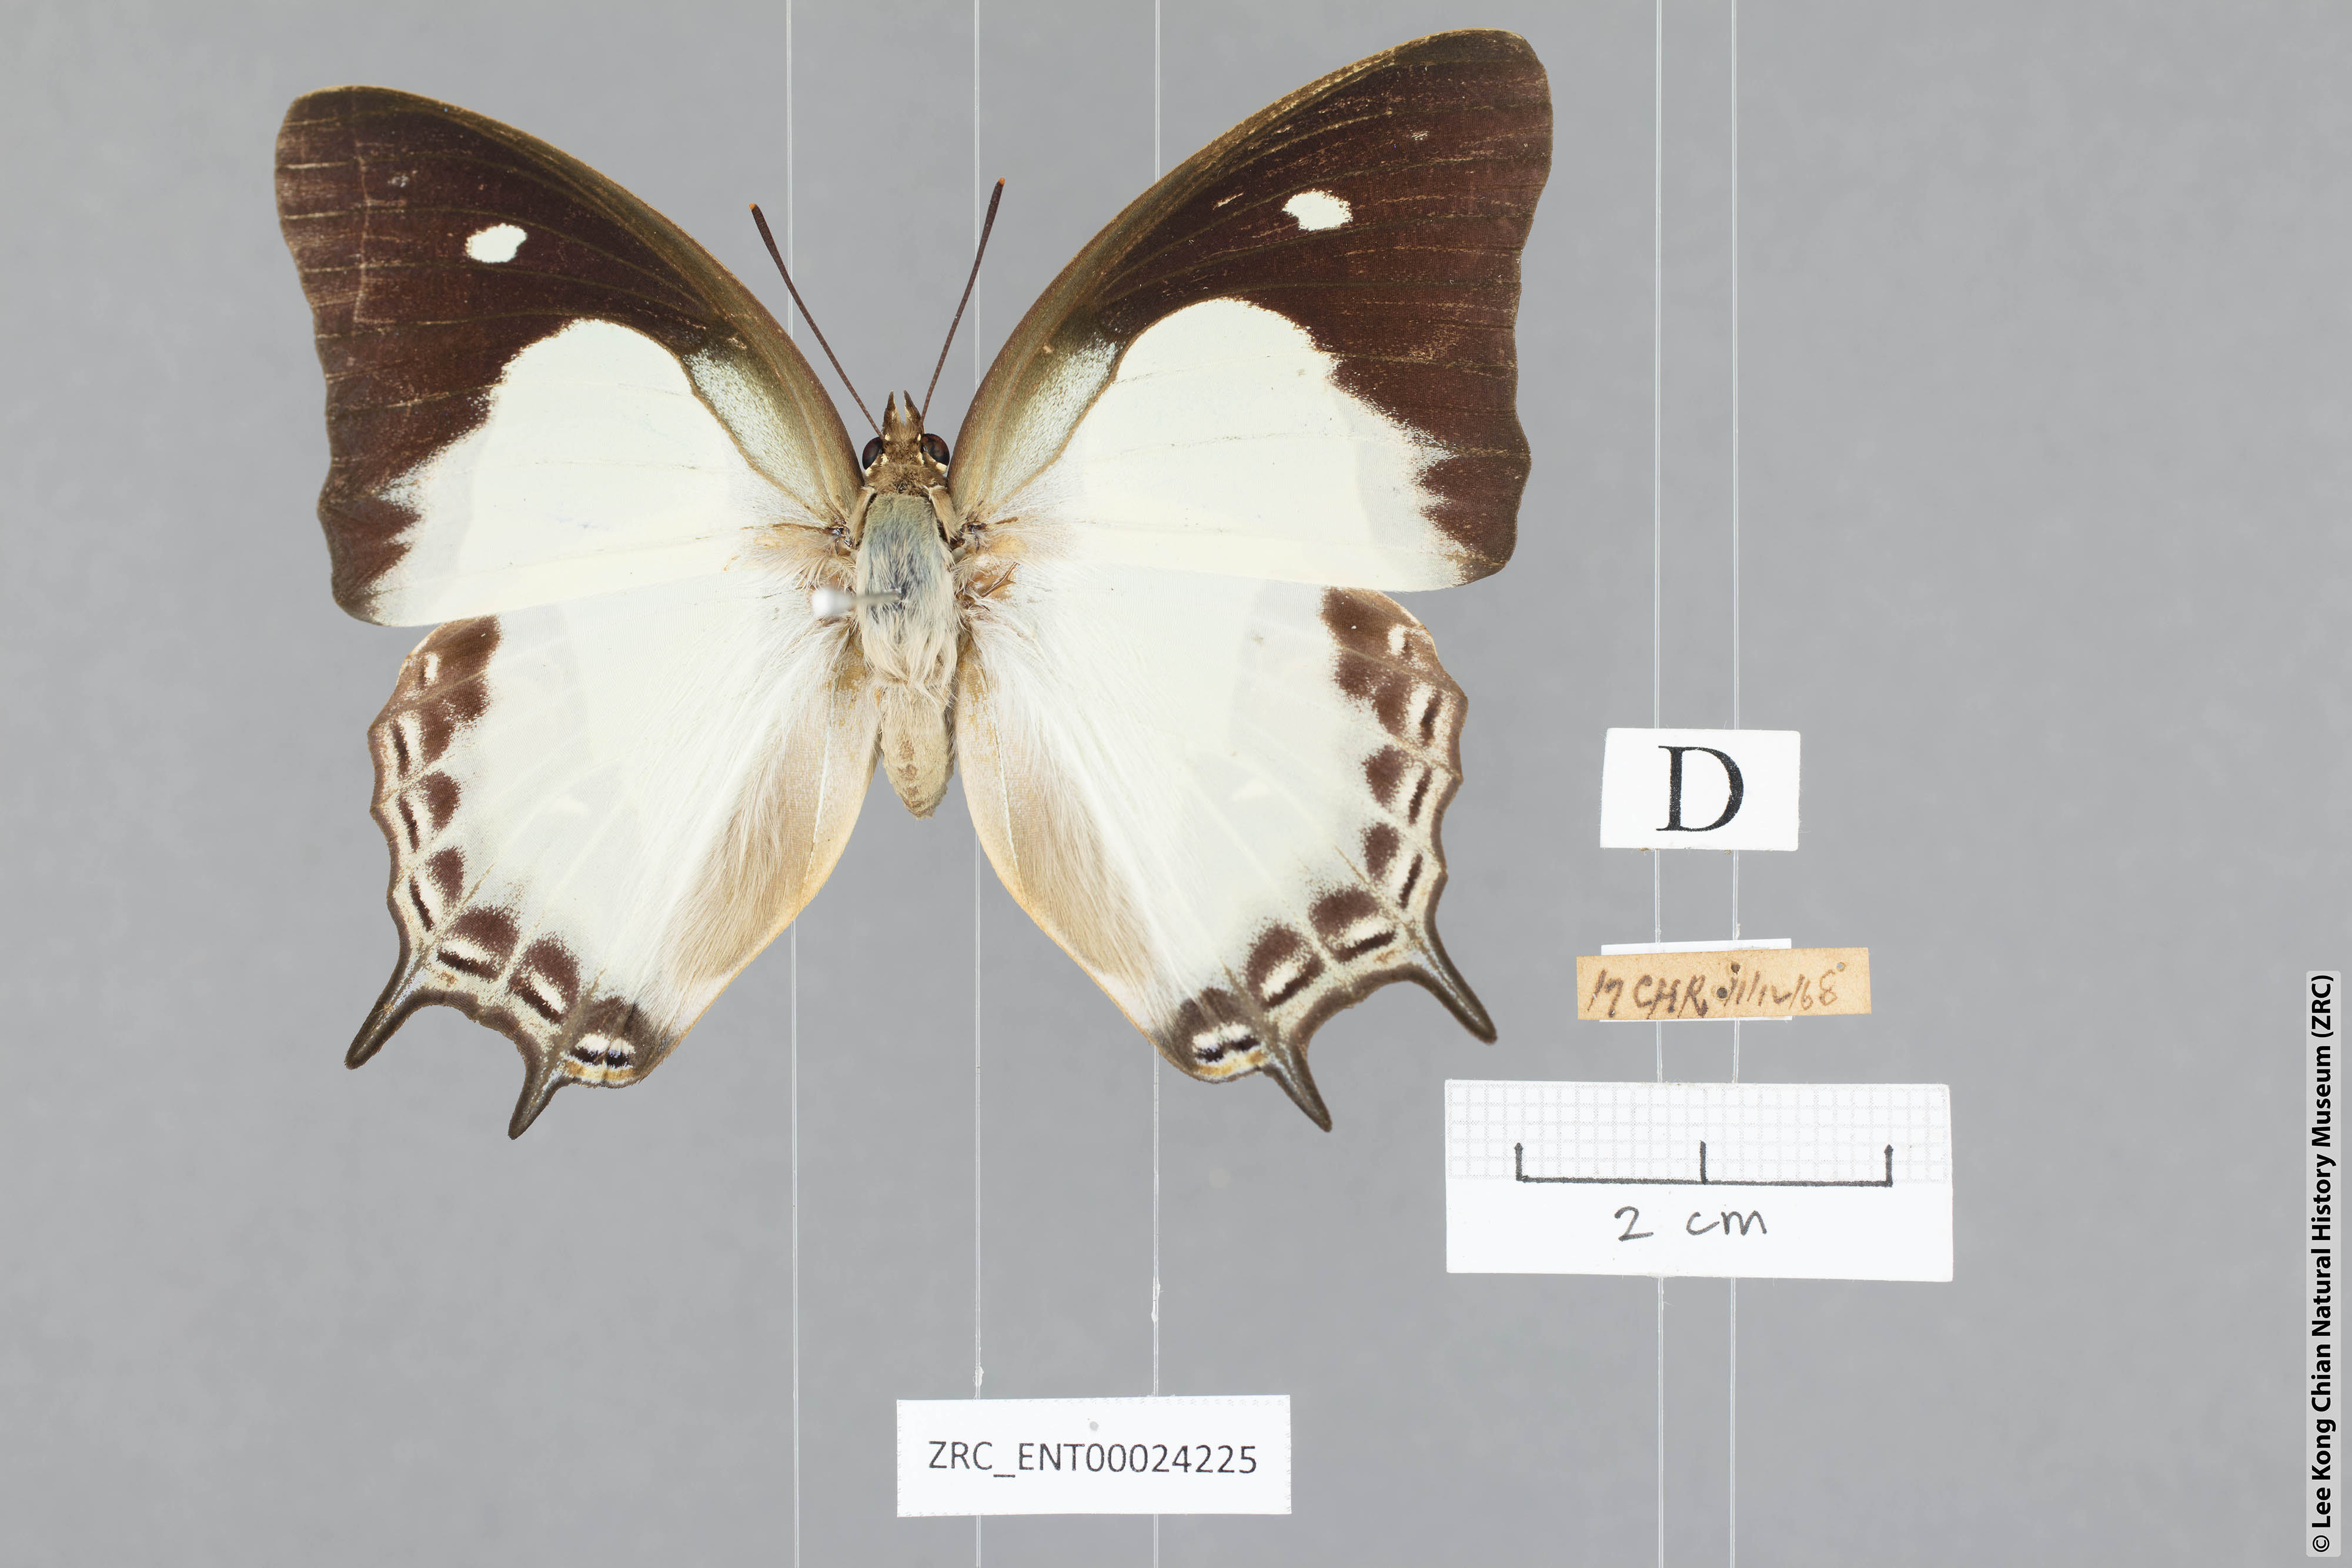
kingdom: Animalia
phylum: Arthropoda
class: Insecta
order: Lepidoptera
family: Nymphalidae
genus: Polyura
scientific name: Polyura hebe
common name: Plain nawab
